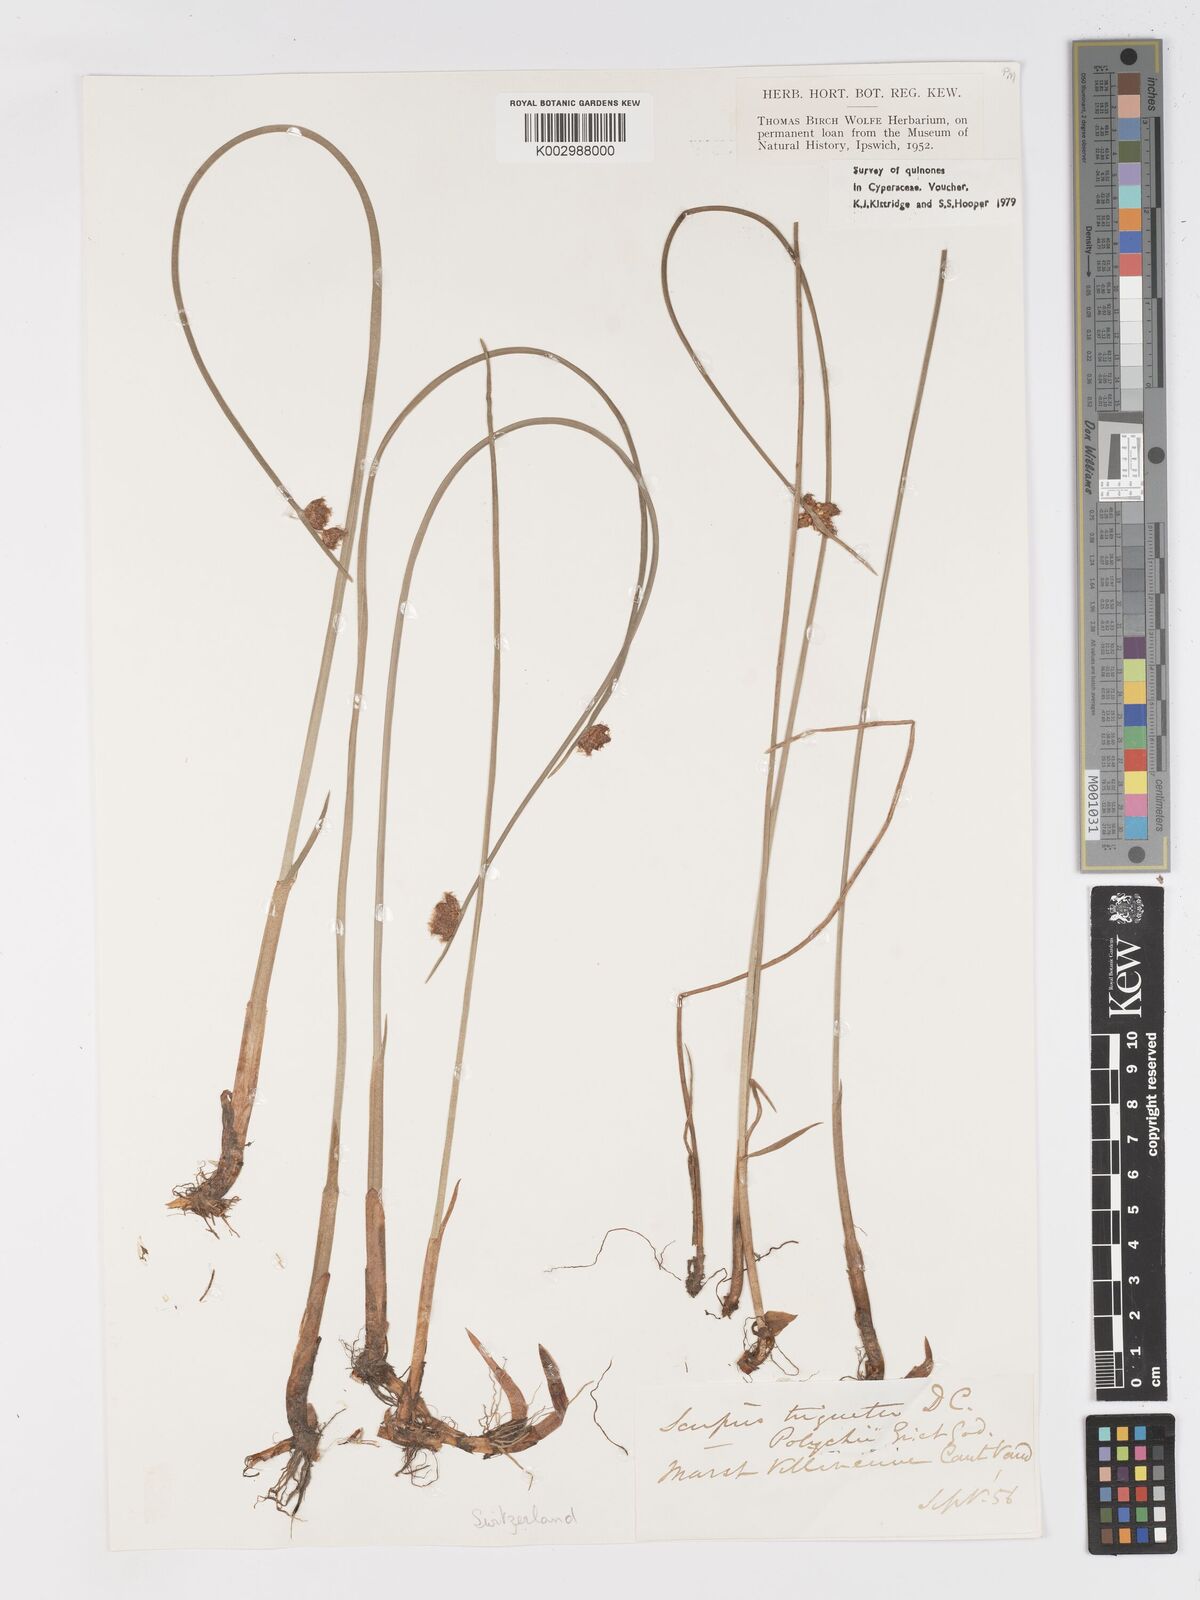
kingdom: Plantae
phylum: Tracheophyta
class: Liliopsida
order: Poales
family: Cyperaceae
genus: Schoenoplectus
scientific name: Schoenoplectus triqueter
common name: Triangular club-rush
